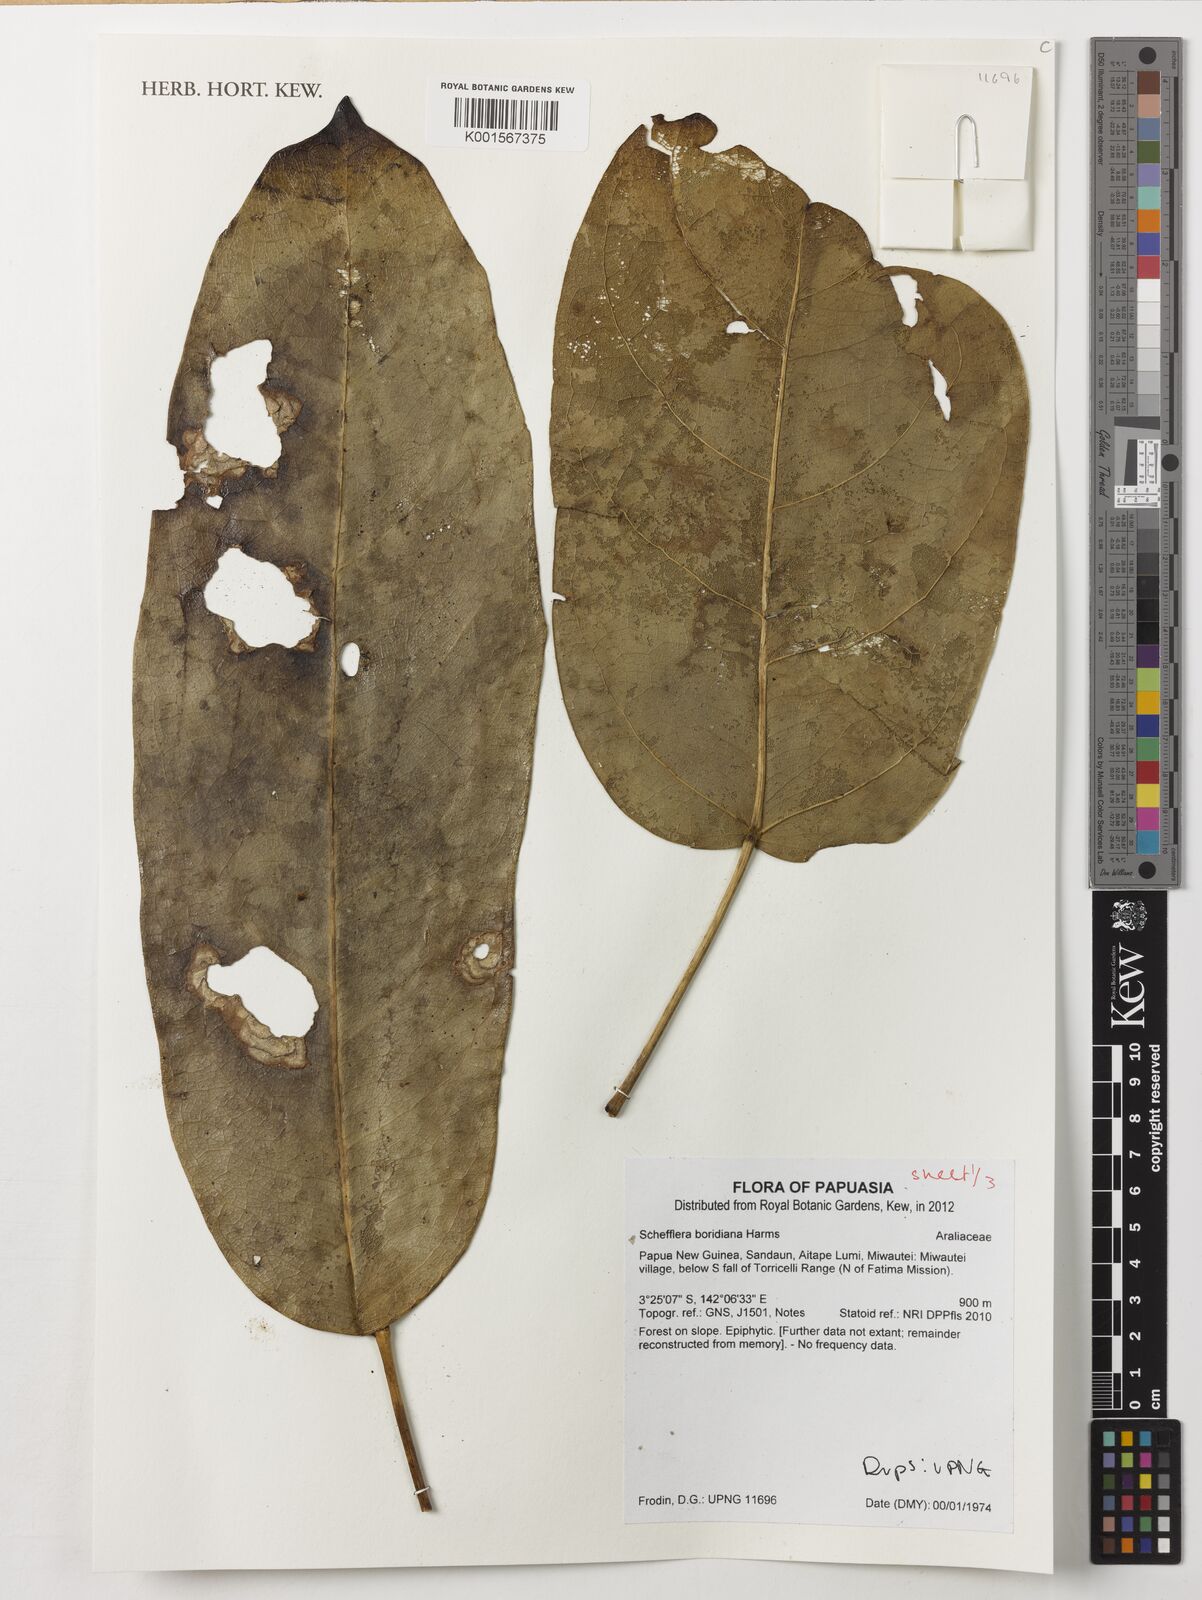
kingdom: Plantae
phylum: Tracheophyta
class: Magnoliopsida
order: Apiales
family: Araliaceae
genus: Heptapleurum
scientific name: Heptapleurum boridianum
